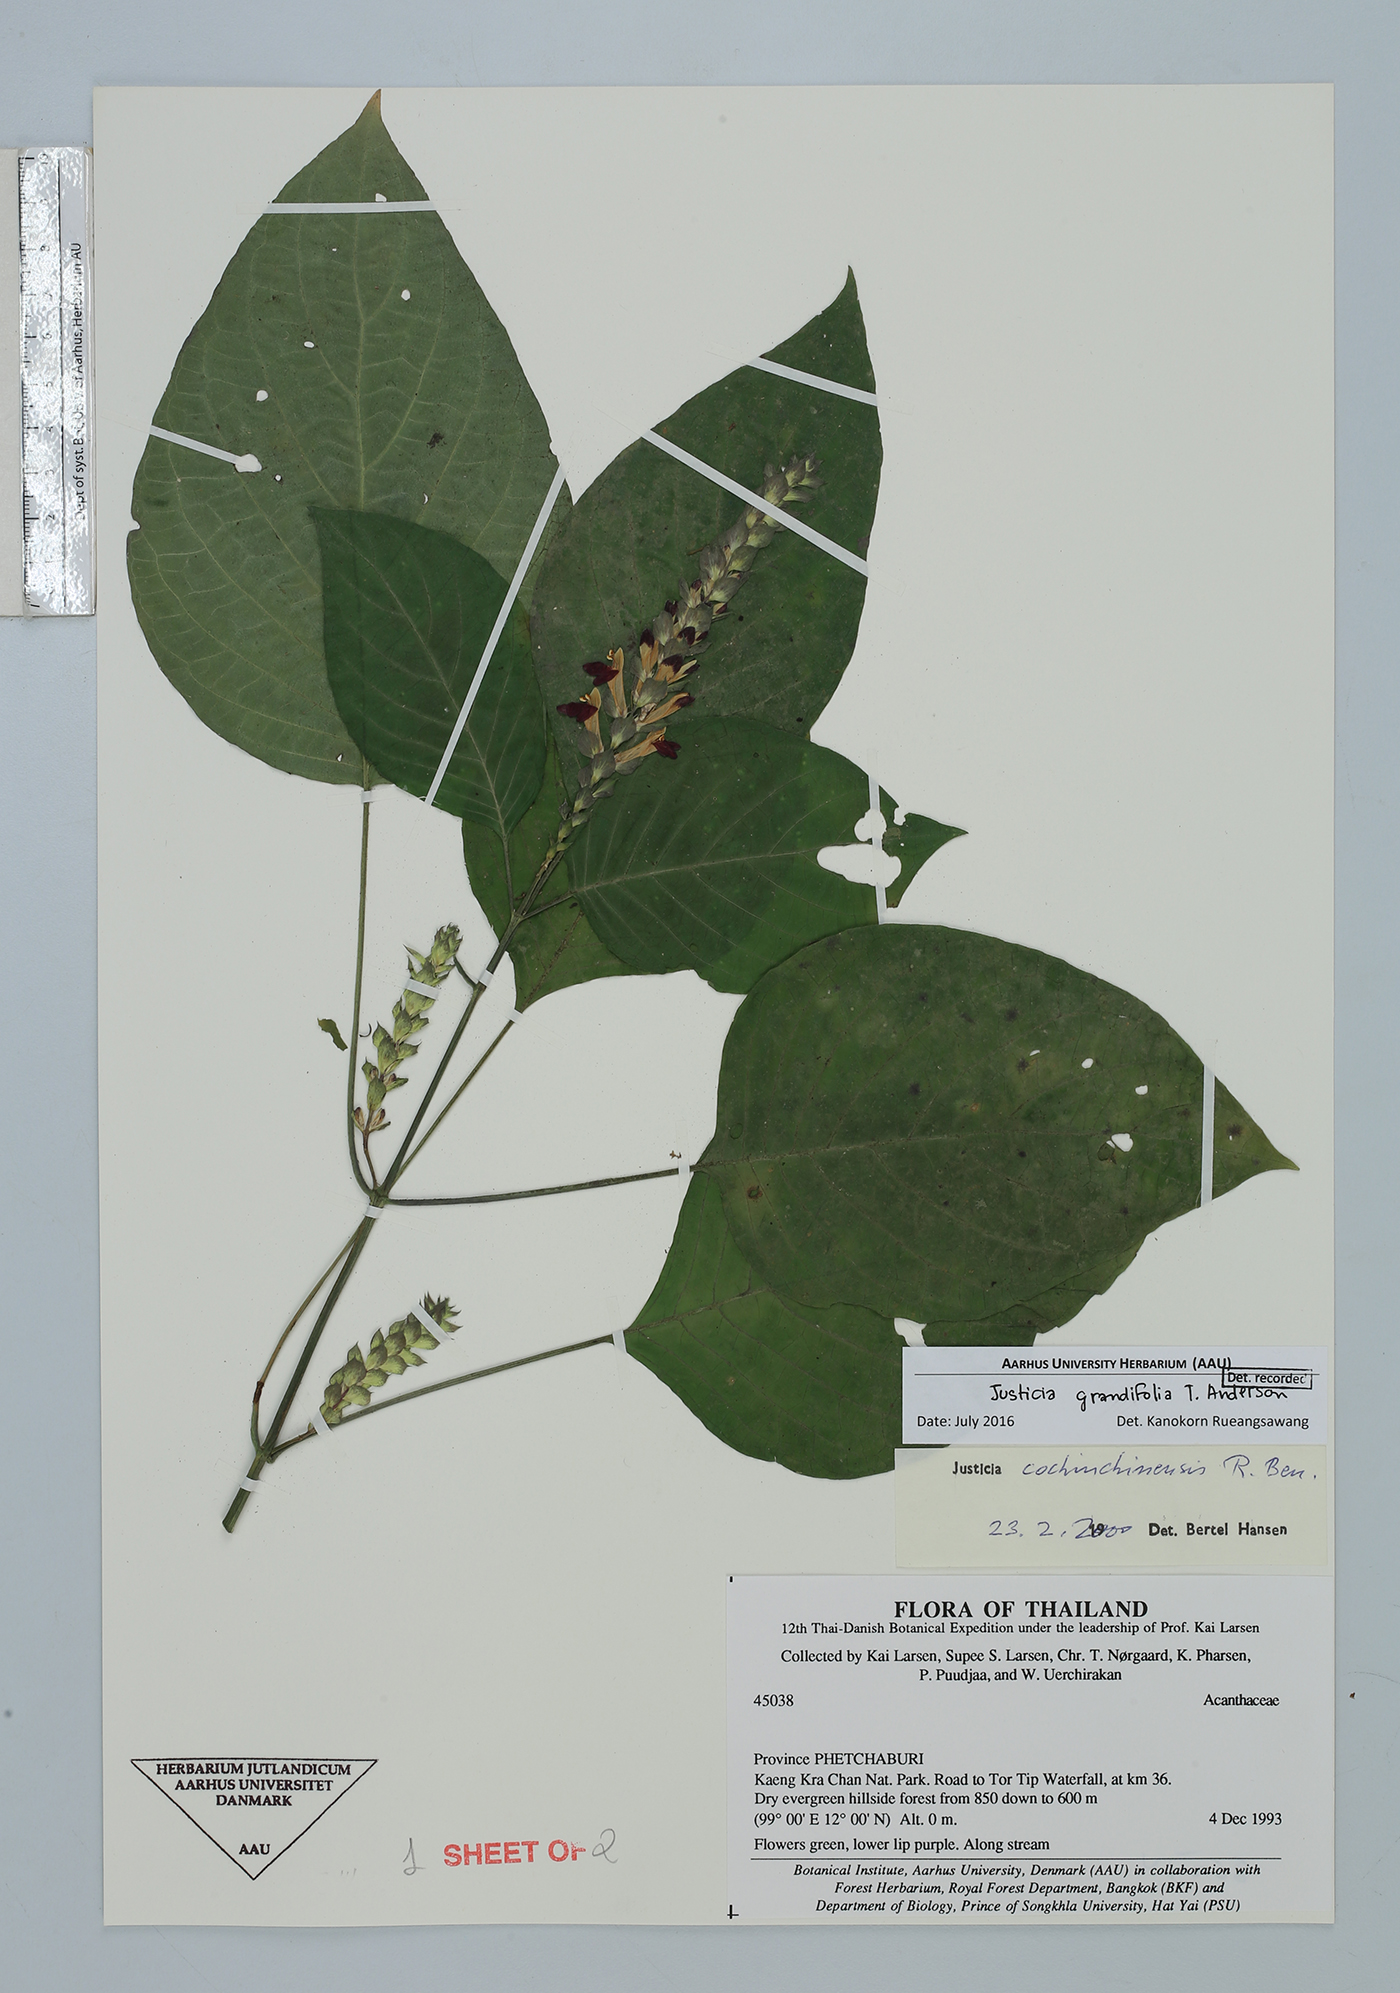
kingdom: Plantae
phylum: Tracheophyta
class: Magnoliopsida
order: Lamiales
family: Acanthaceae
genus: Justicia
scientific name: Justicia grandifolia
